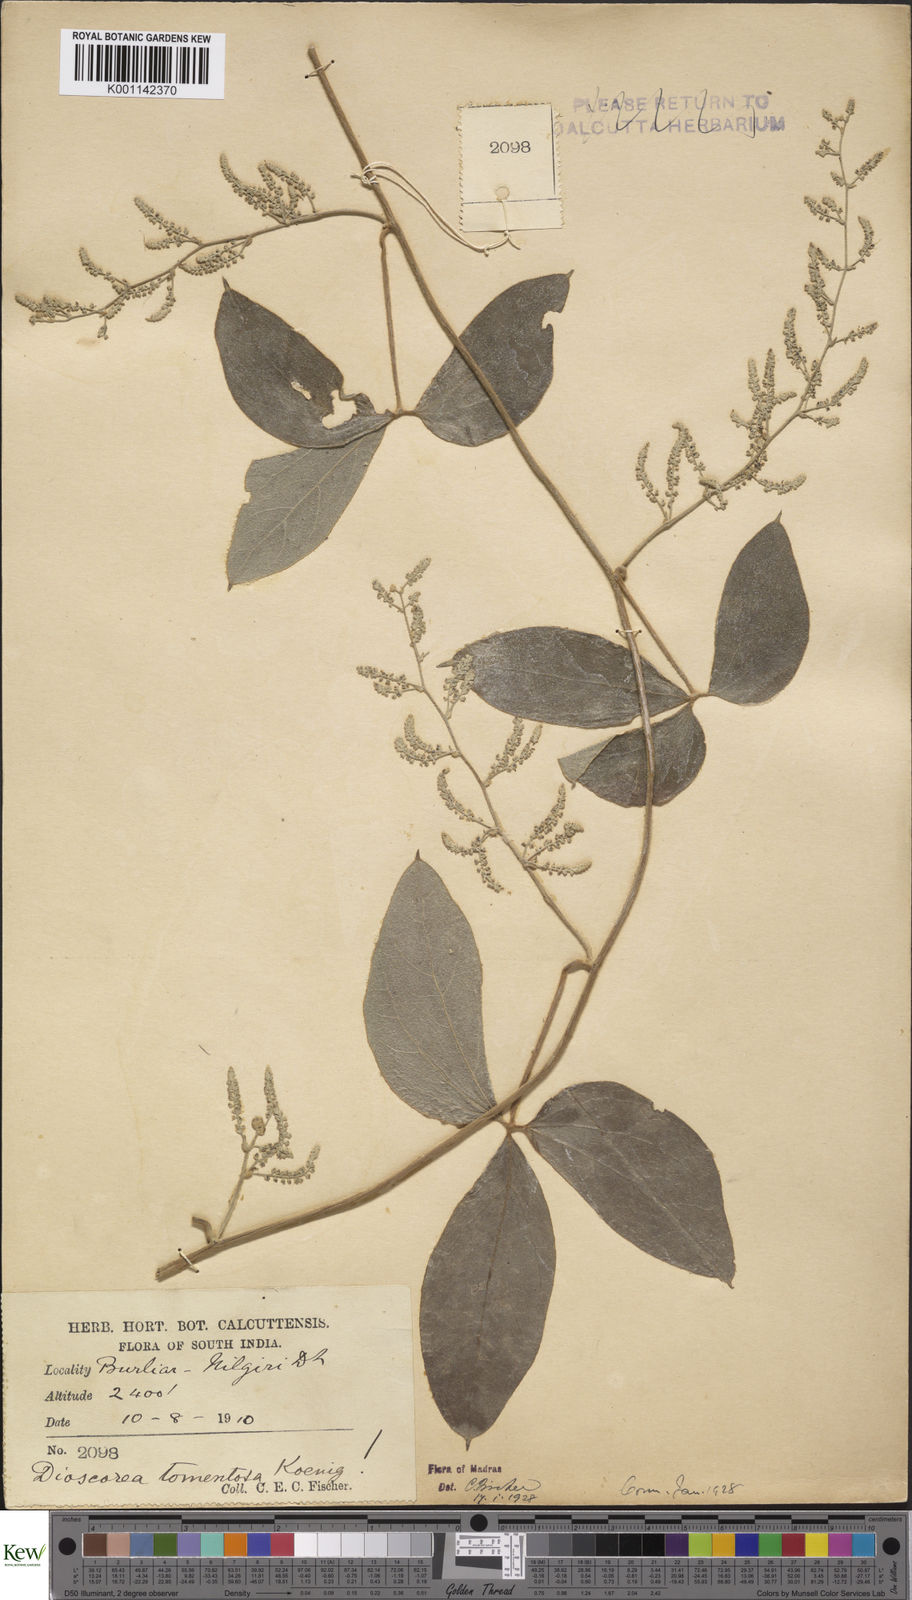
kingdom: Plantae
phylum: Tracheophyta
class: Liliopsida
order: Dioscoreales
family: Dioscoreaceae
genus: Dioscorea
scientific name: Dioscorea
